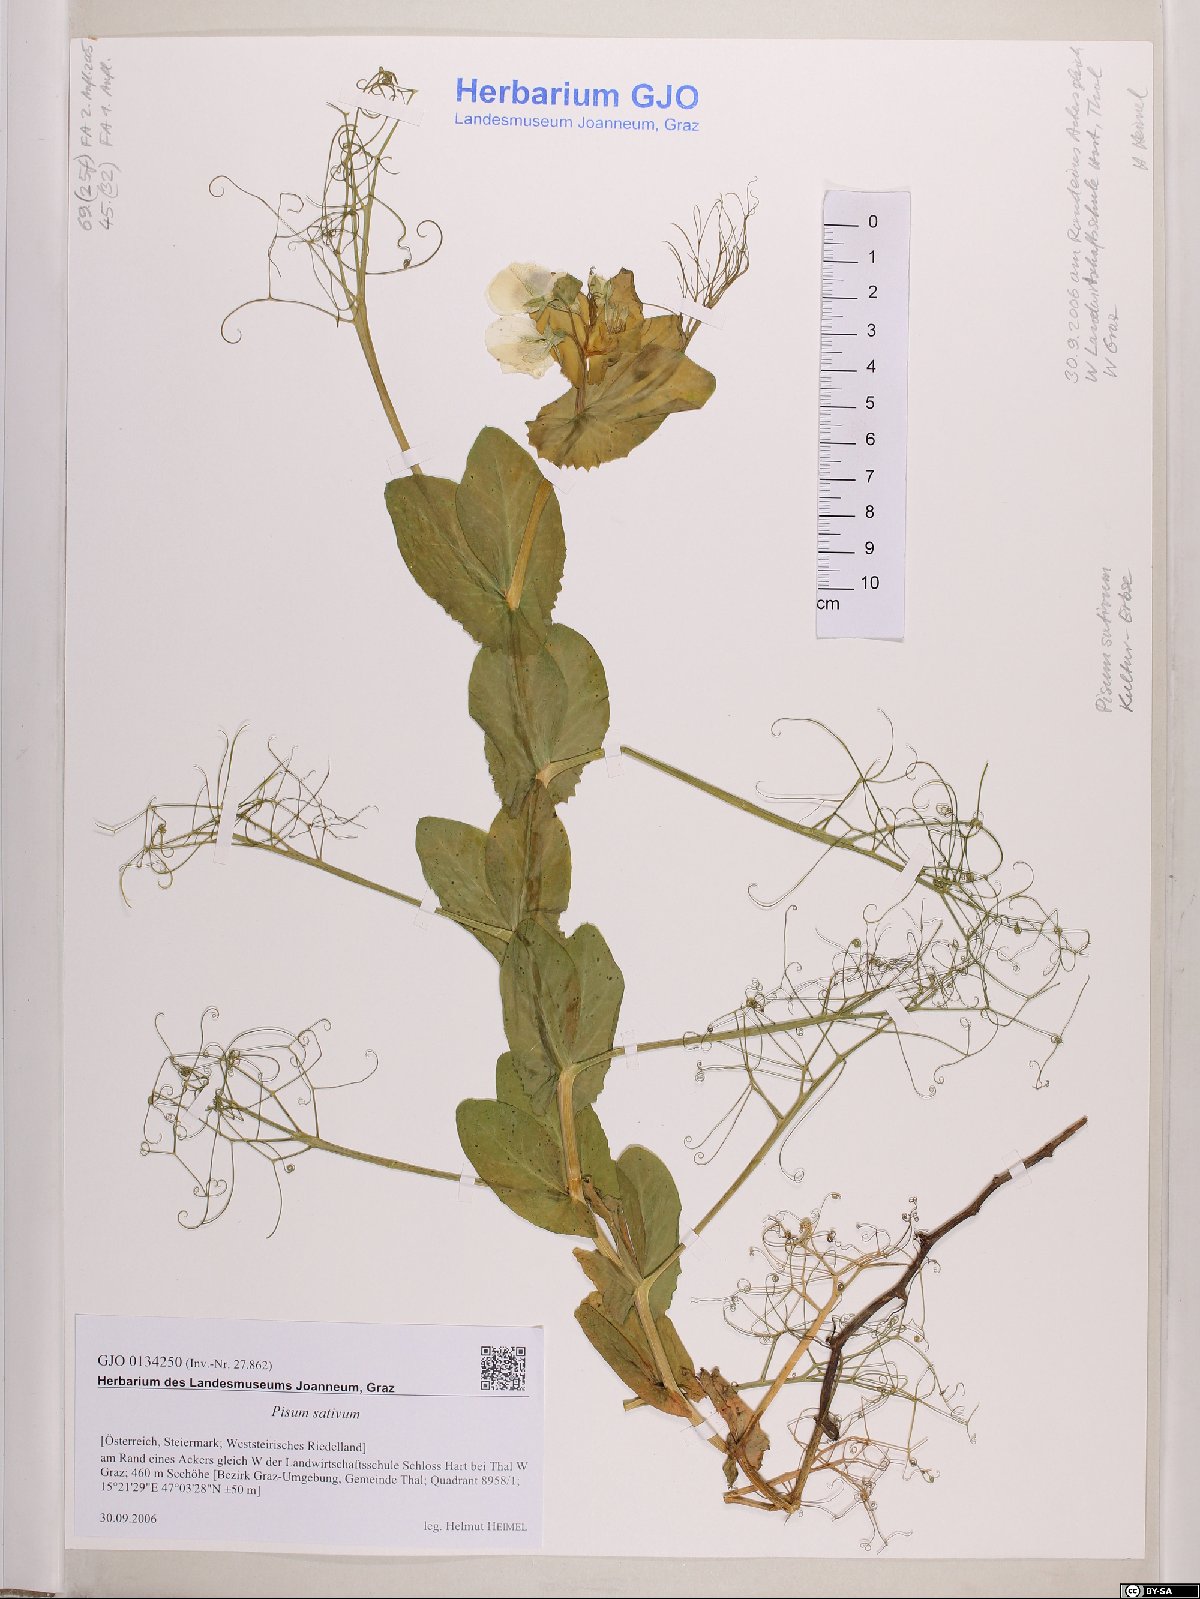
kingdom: Plantae
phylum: Tracheophyta
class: Magnoliopsida
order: Fabales
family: Fabaceae
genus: Lathyrus
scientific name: Lathyrus oleraceus
